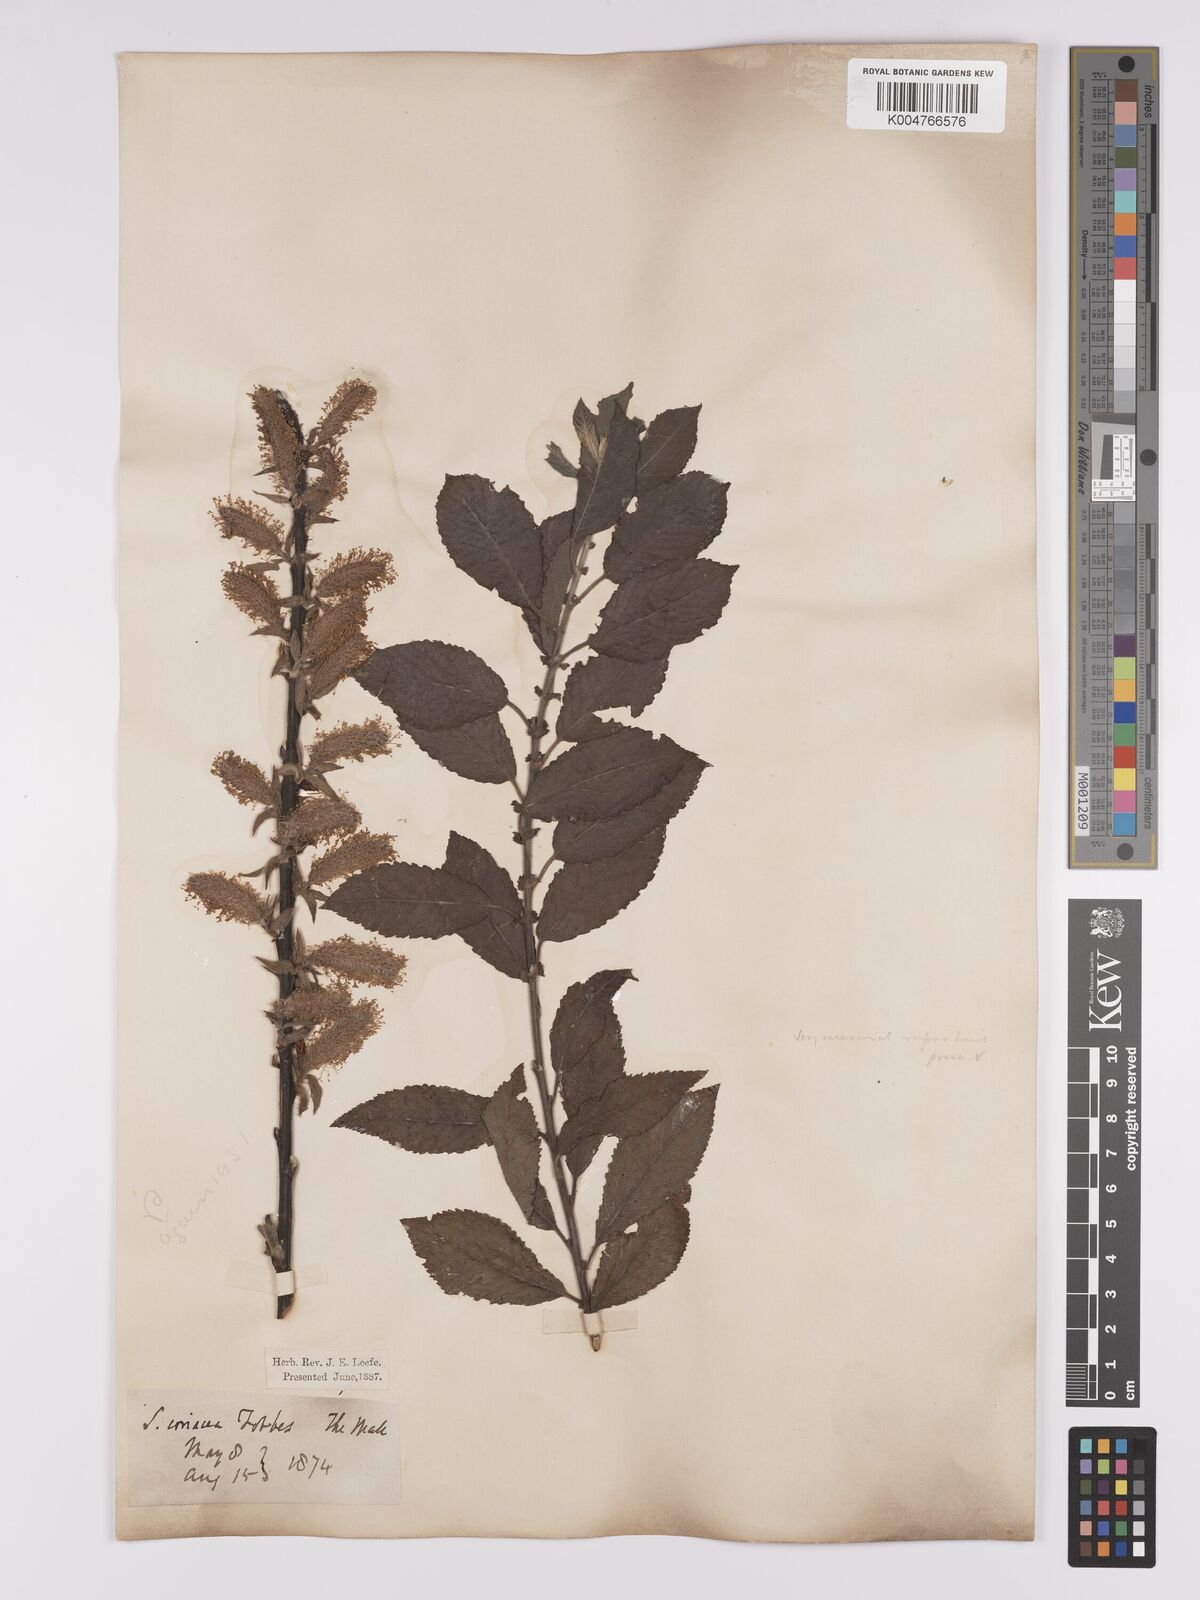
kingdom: Plantae
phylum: Tracheophyta
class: Magnoliopsida
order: Malpighiales
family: Salicaceae
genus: Salix
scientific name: Salix
